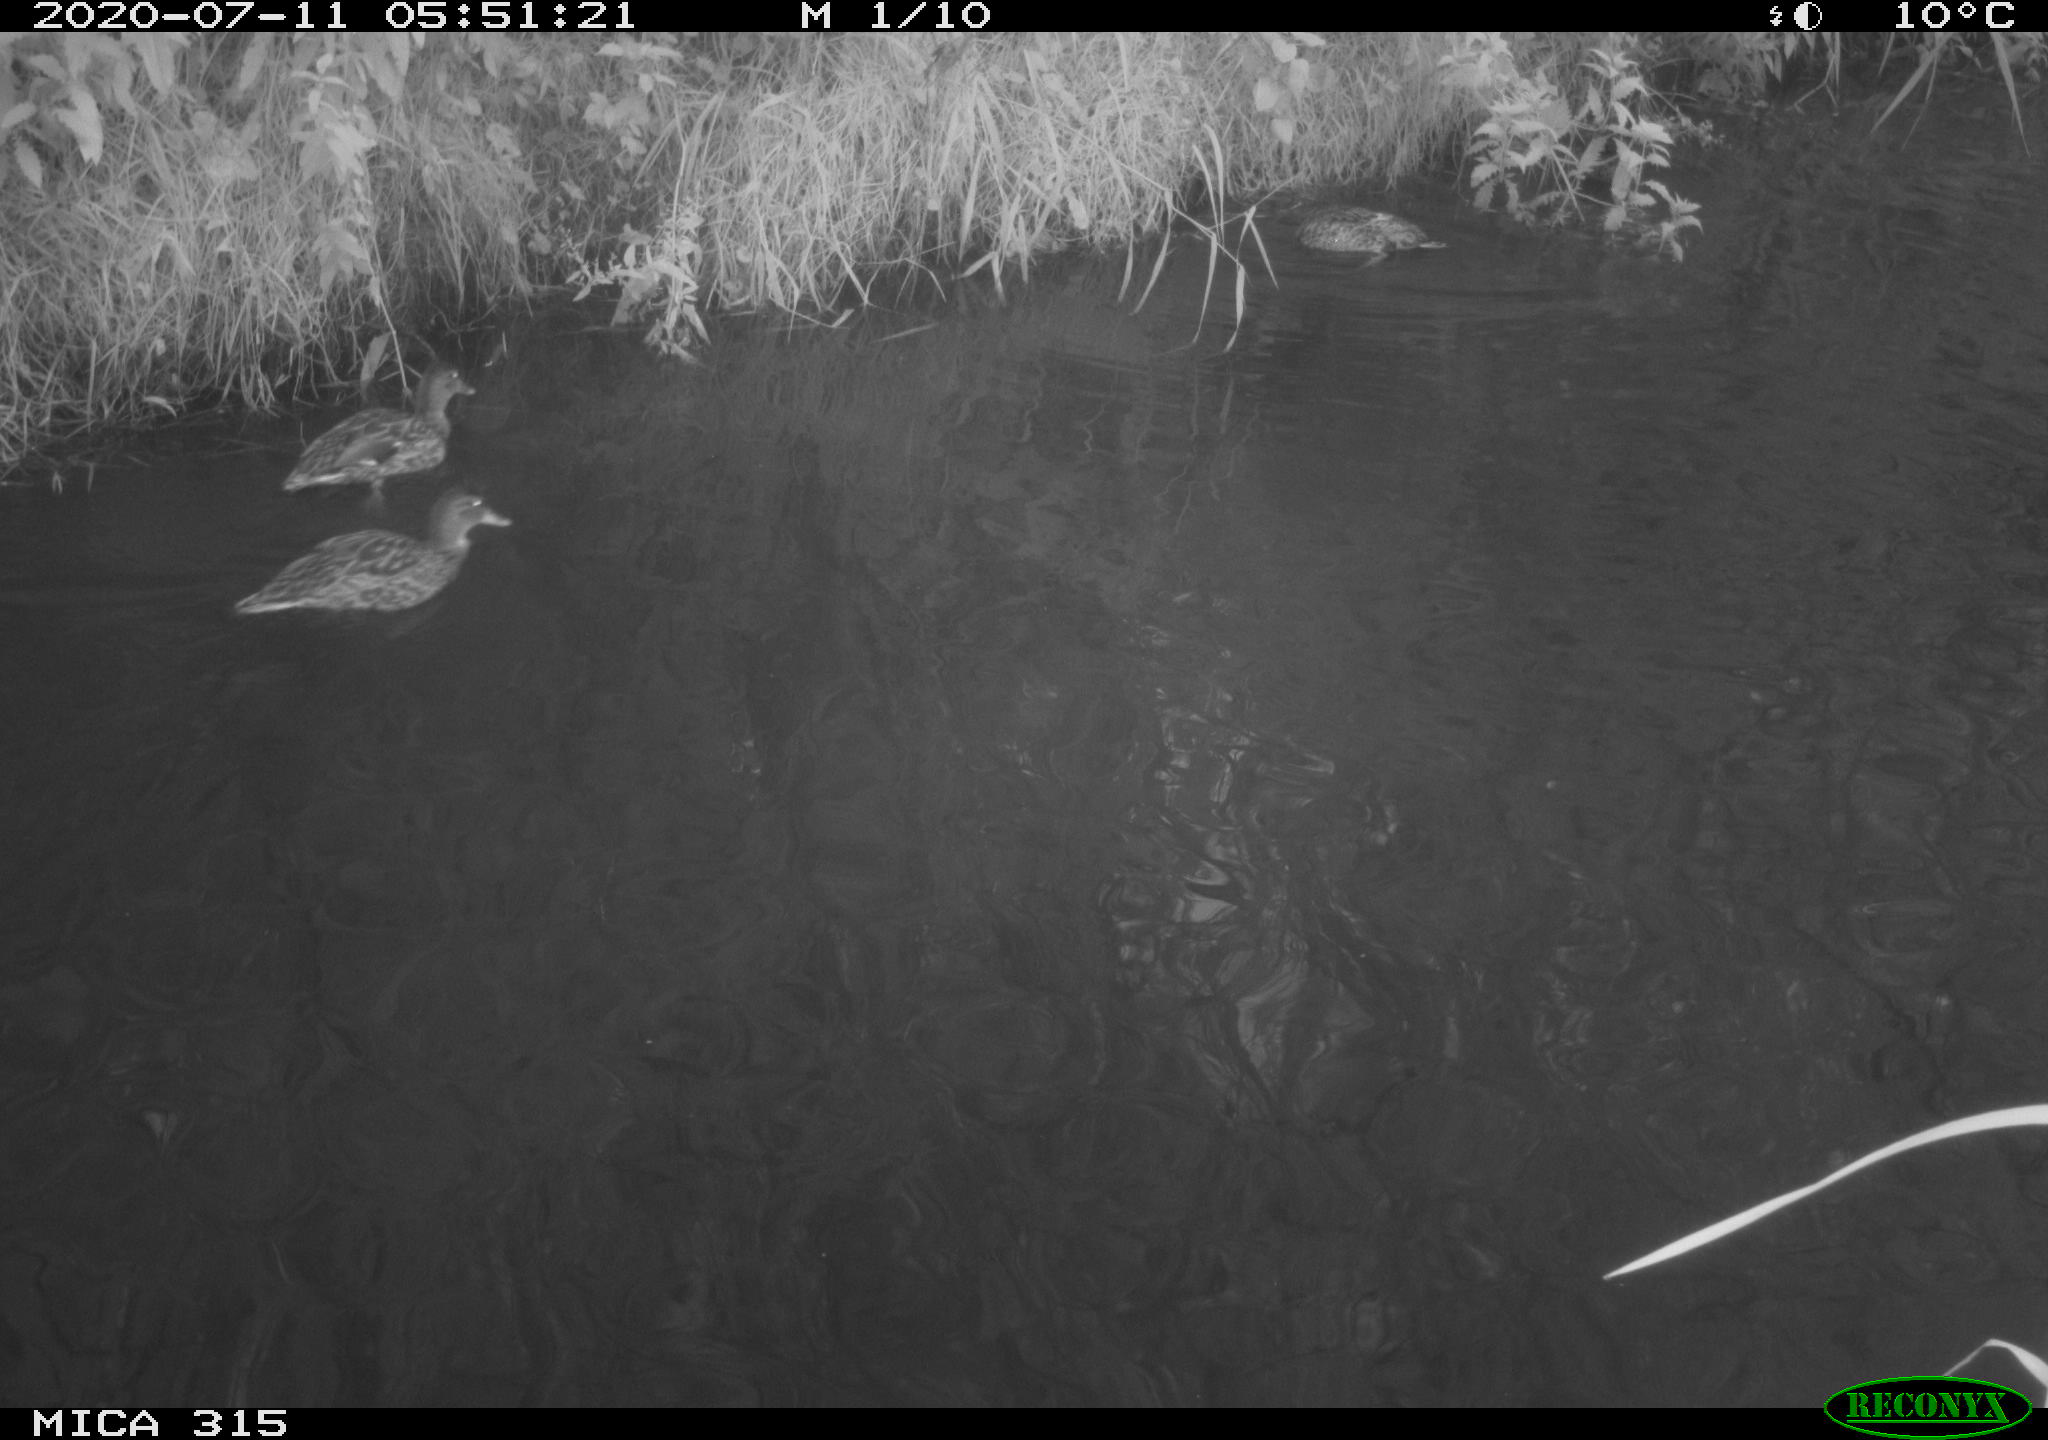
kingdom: Animalia
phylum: Chordata
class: Aves
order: Anseriformes
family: Anatidae
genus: Anas
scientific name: Anas platyrhynchos
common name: Mallard
